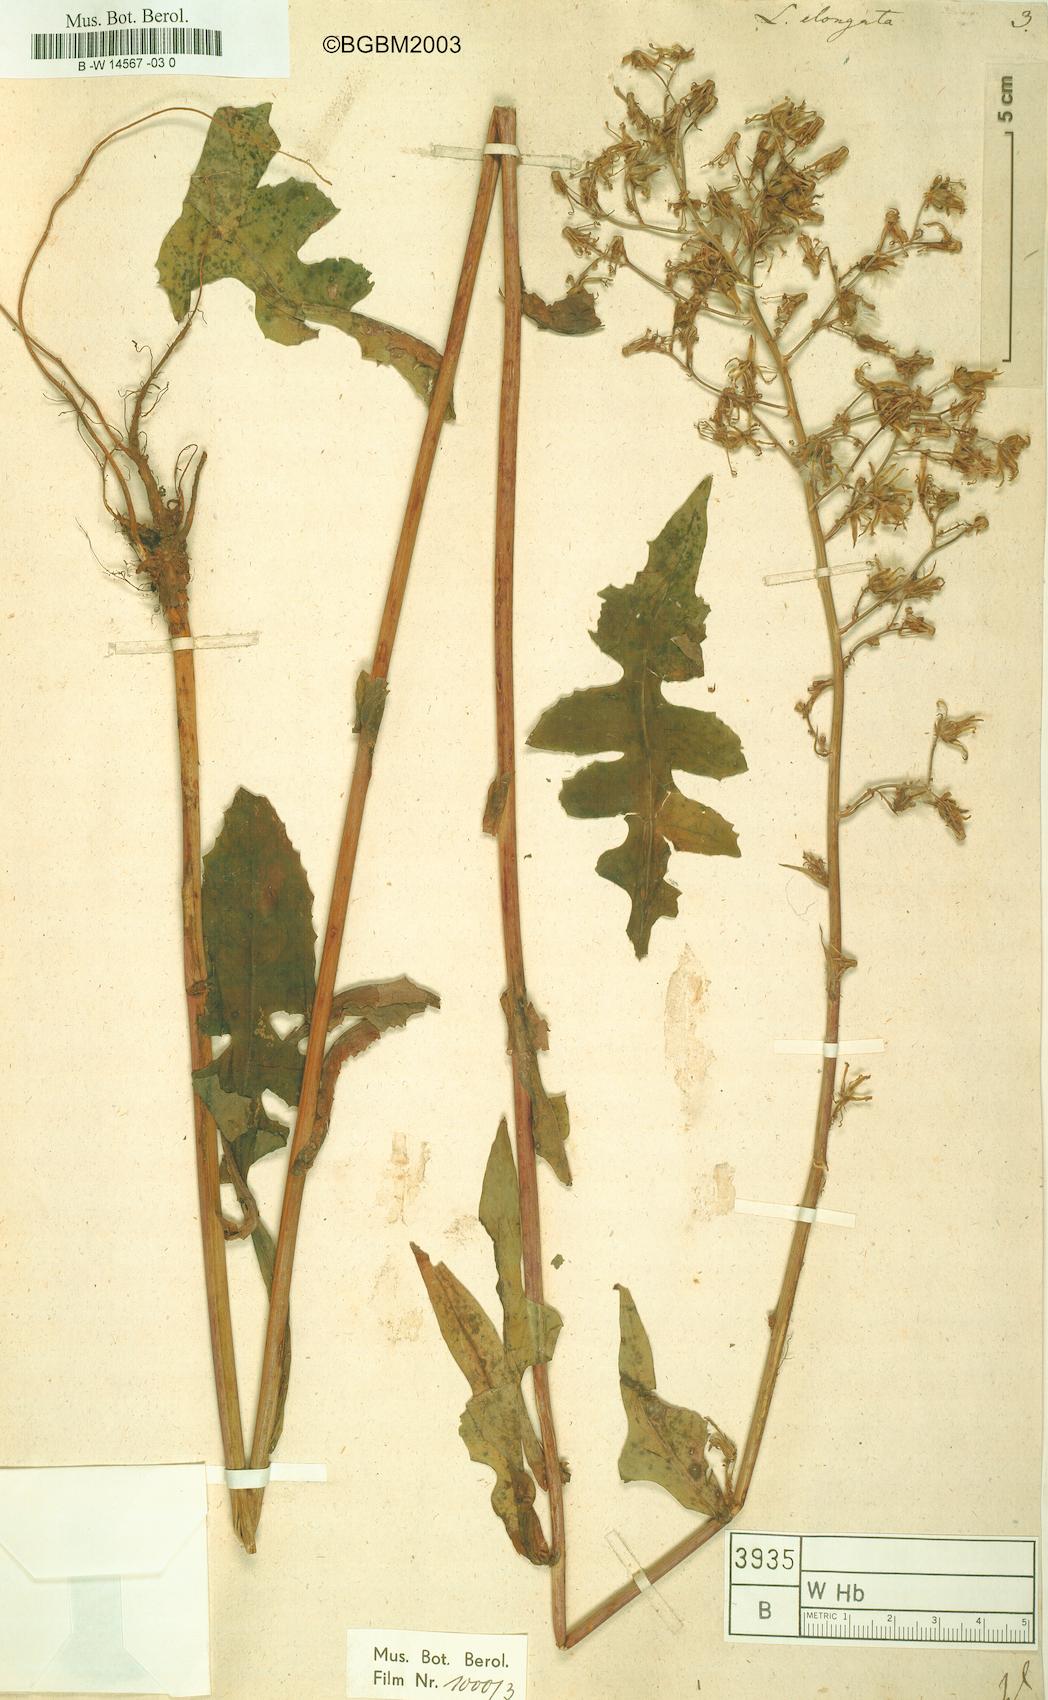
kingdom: Plantae
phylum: Tracheophyta
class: Magnoliopsida
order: Asterales
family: Asteraceae
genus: Lactuca
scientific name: Lactuca canadensis
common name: Canada lettuce
